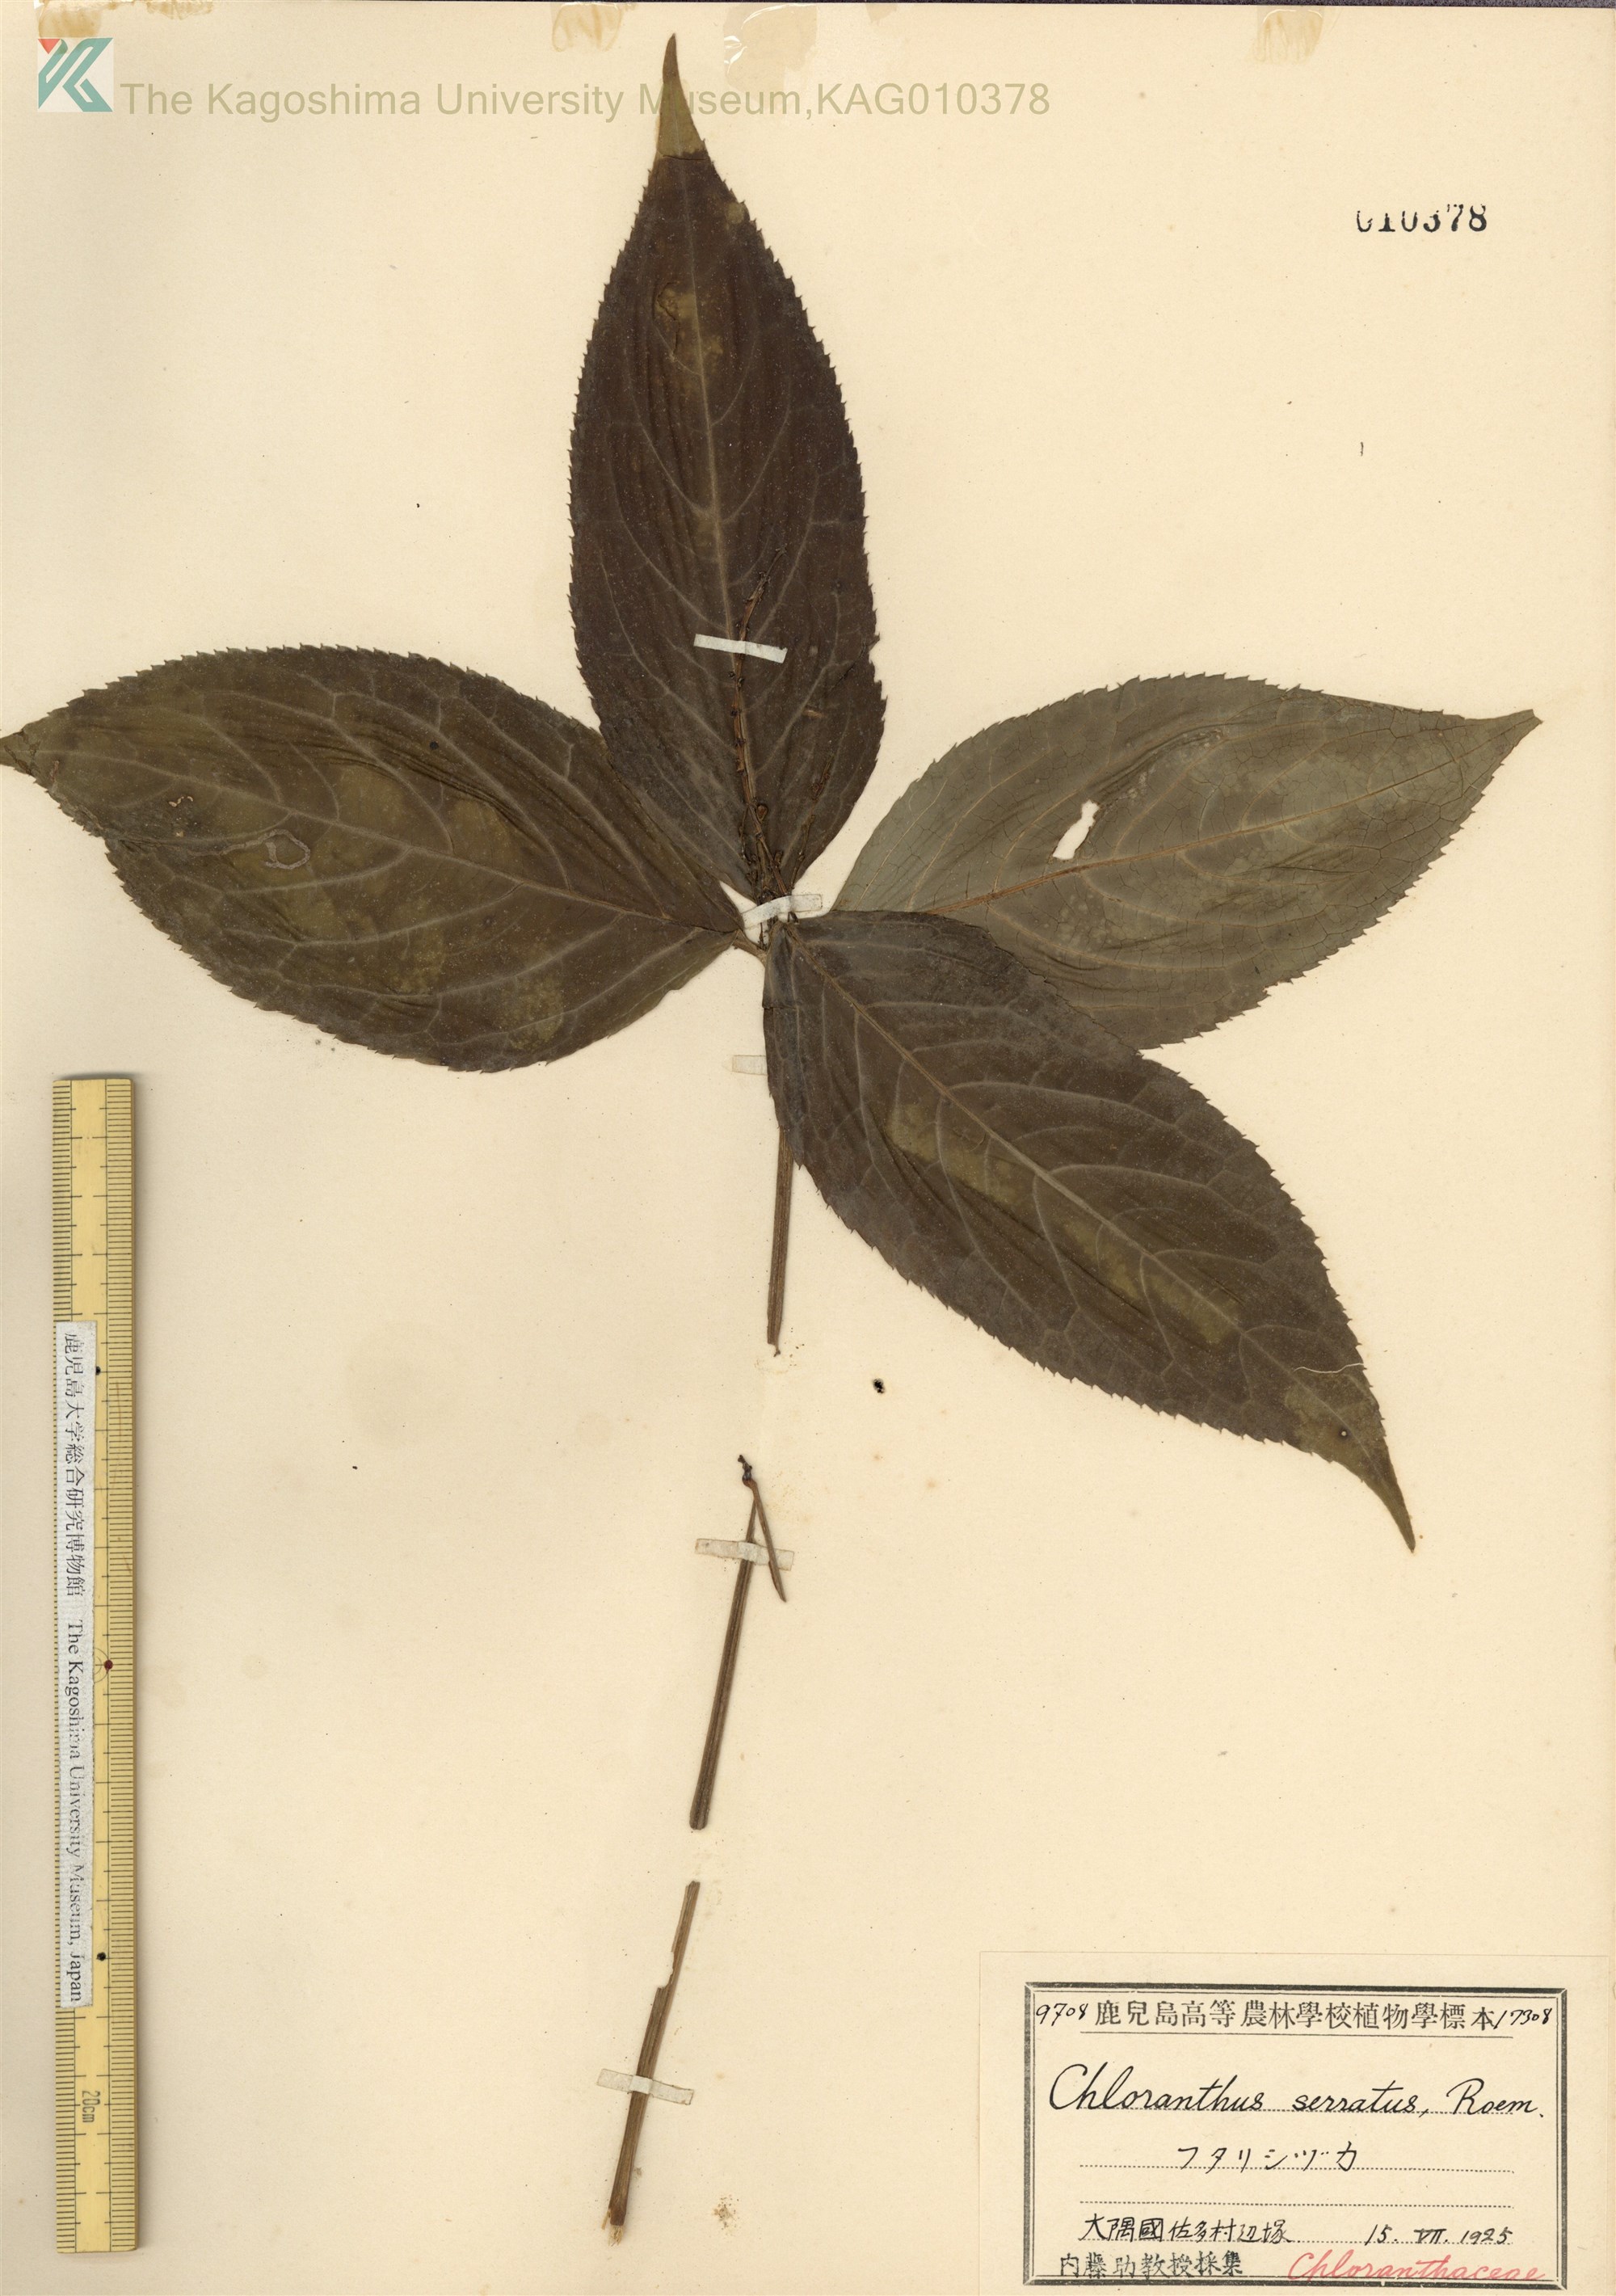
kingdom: Plantae
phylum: Tracheophyta
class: Magnoliopsida
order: Chloranthales
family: Chloranthaceae
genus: Chloranthus
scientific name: Chloranthus serratus
